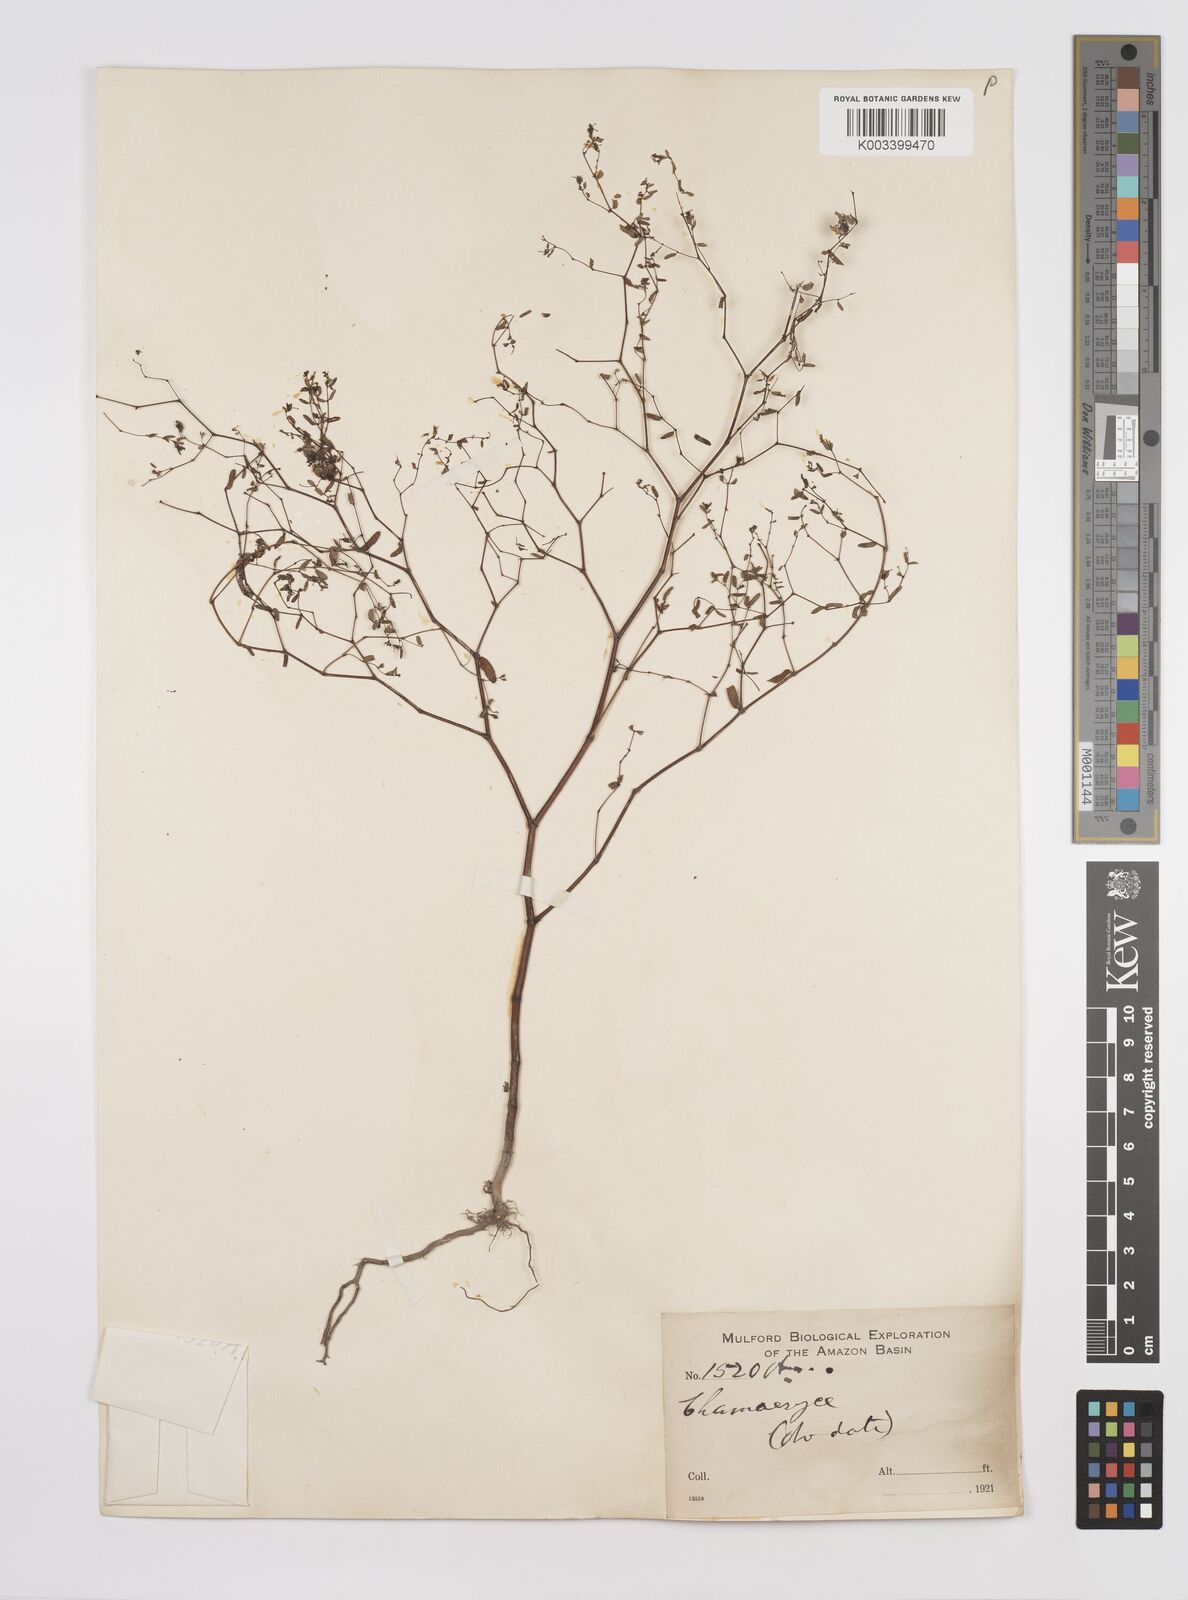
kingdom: Plantae
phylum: Tracheophyta
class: Magnoliopsida
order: Malpighiales
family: Euphorbiaceae
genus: Euphorbia
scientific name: Euphorbia
